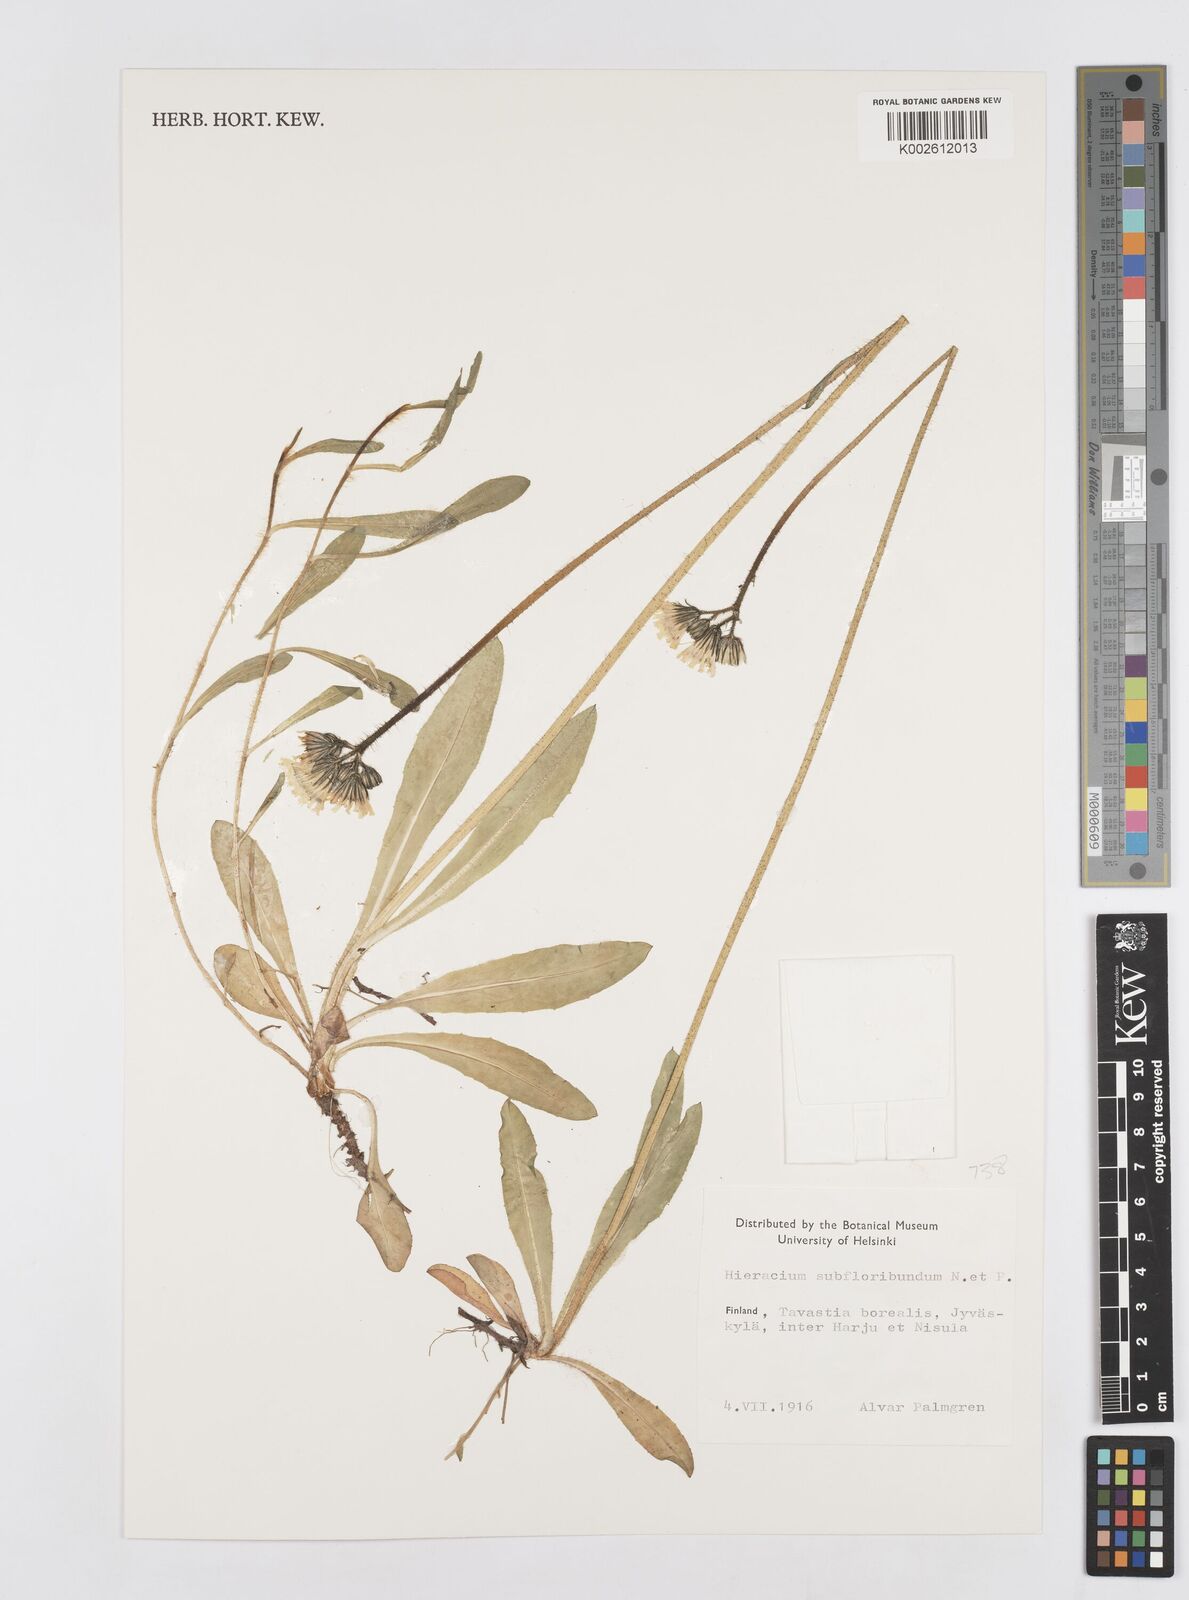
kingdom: Plantae
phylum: Tracheophyta
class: Magnoliopsida
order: Asterales
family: Asteraceae
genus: Pilosella
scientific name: Pilosella scandinavica
